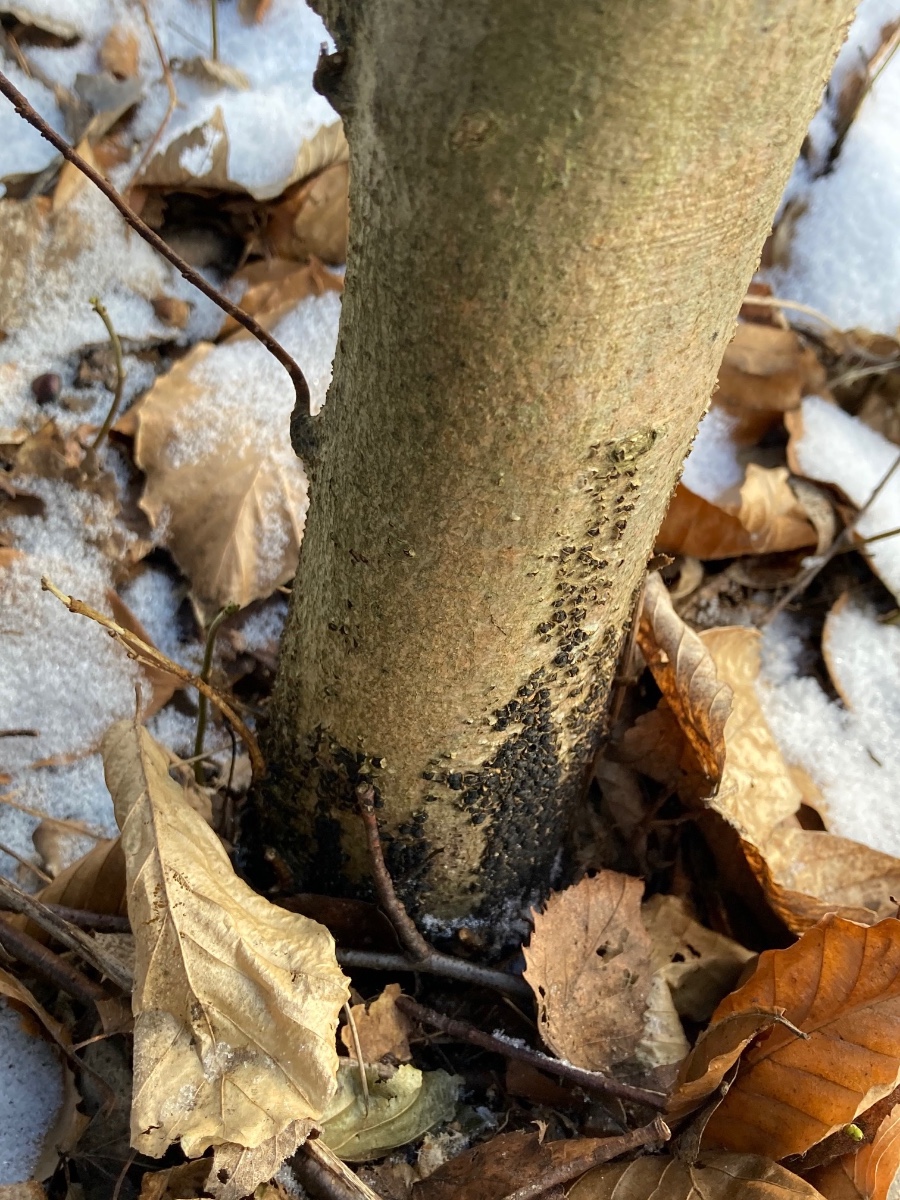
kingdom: Fungi
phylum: Ascomycota
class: Sordariomycetes
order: Xylariales
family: Melogrammataceae
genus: Melogramma
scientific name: Melogramma spiniferum
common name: bøgefod-kulhals
